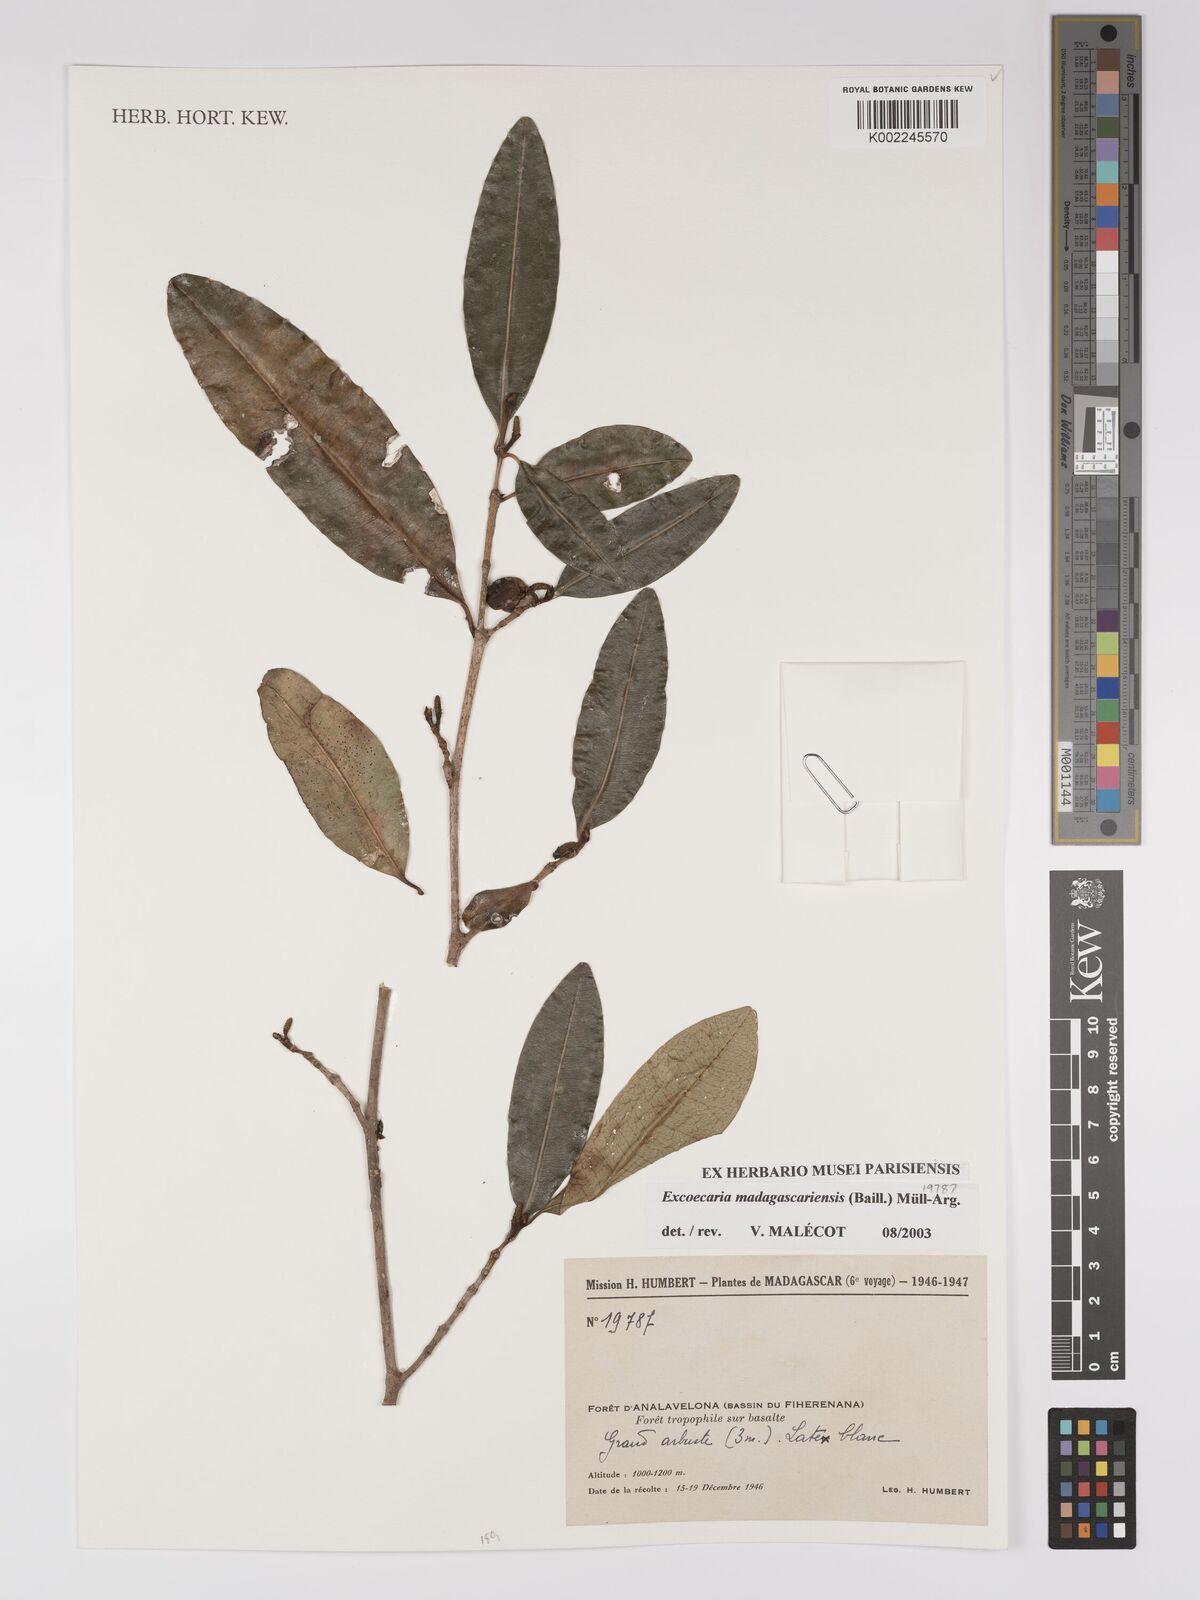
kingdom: Plantae
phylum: Tracheophyta
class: Magnoliopsida
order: Malpighiales
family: Euphorbiaceae
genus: Excoecaria
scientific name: Excoecaria madagascariensis
